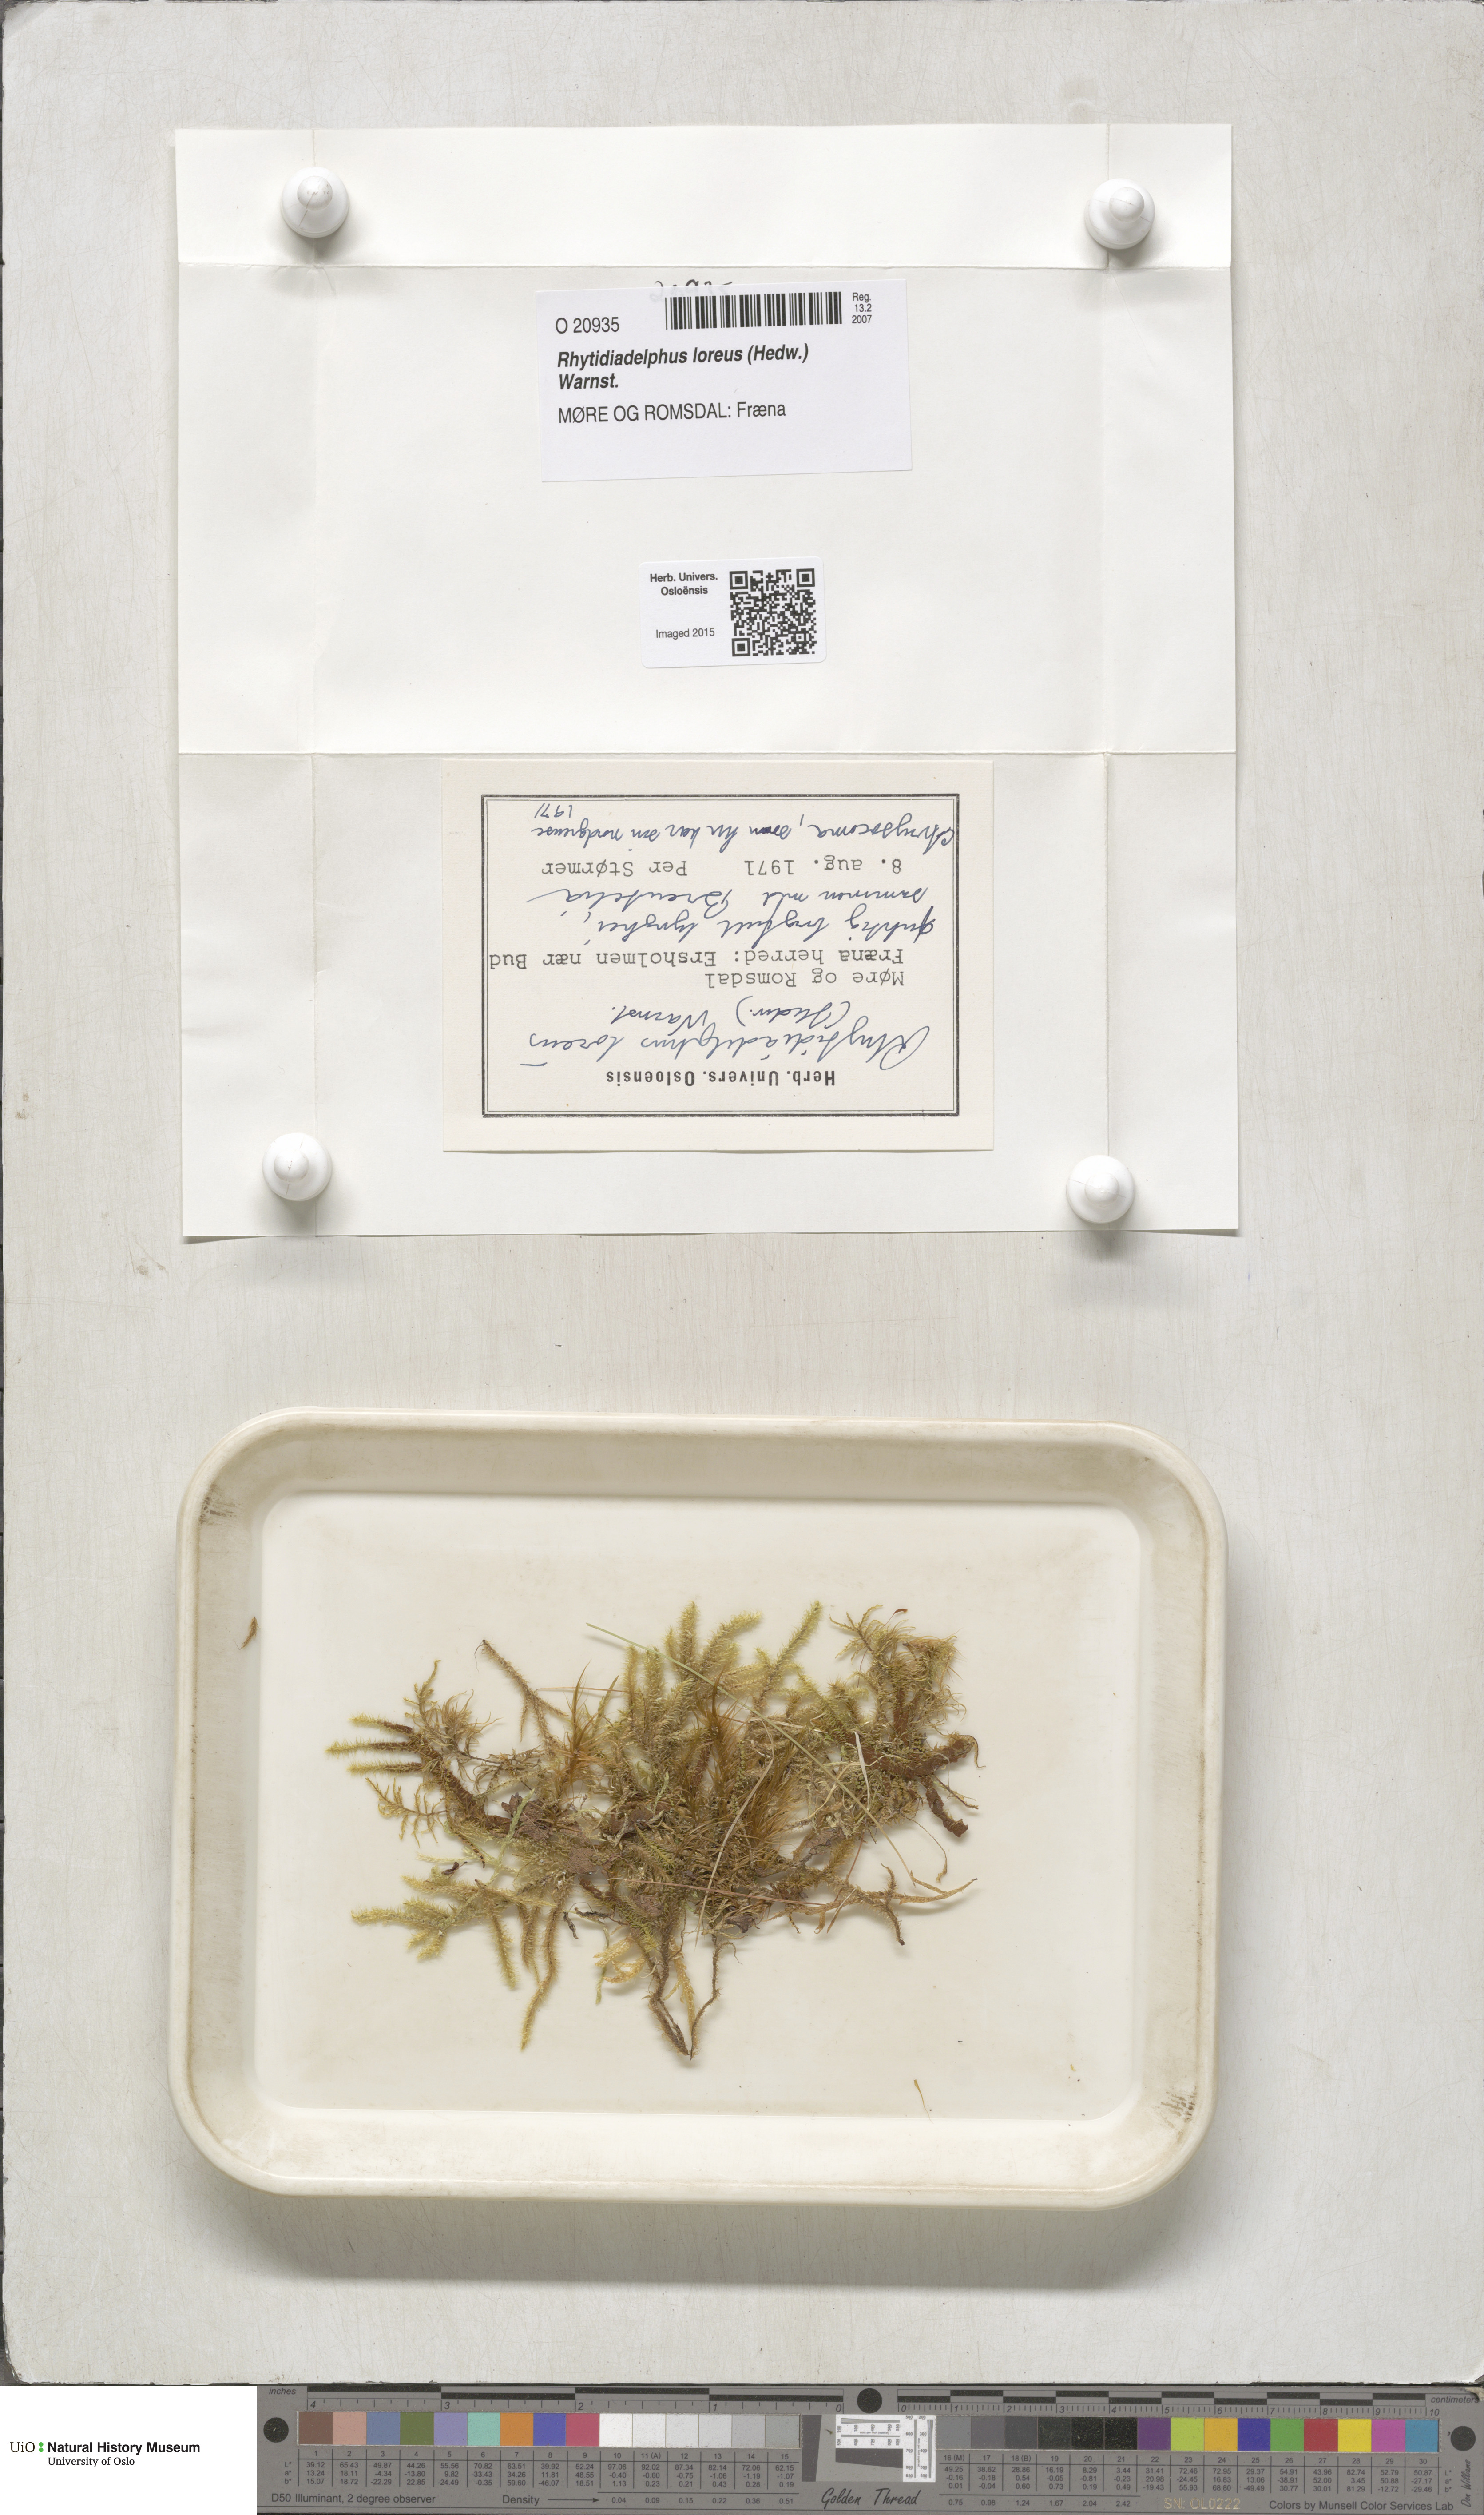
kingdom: Plantae
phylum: Bryophyta
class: Bryopsida
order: Hypnales
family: Hylocomiaceae
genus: Rhytidiadelphus
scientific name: Rhytidiadelphus loreus
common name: Lanky moss
